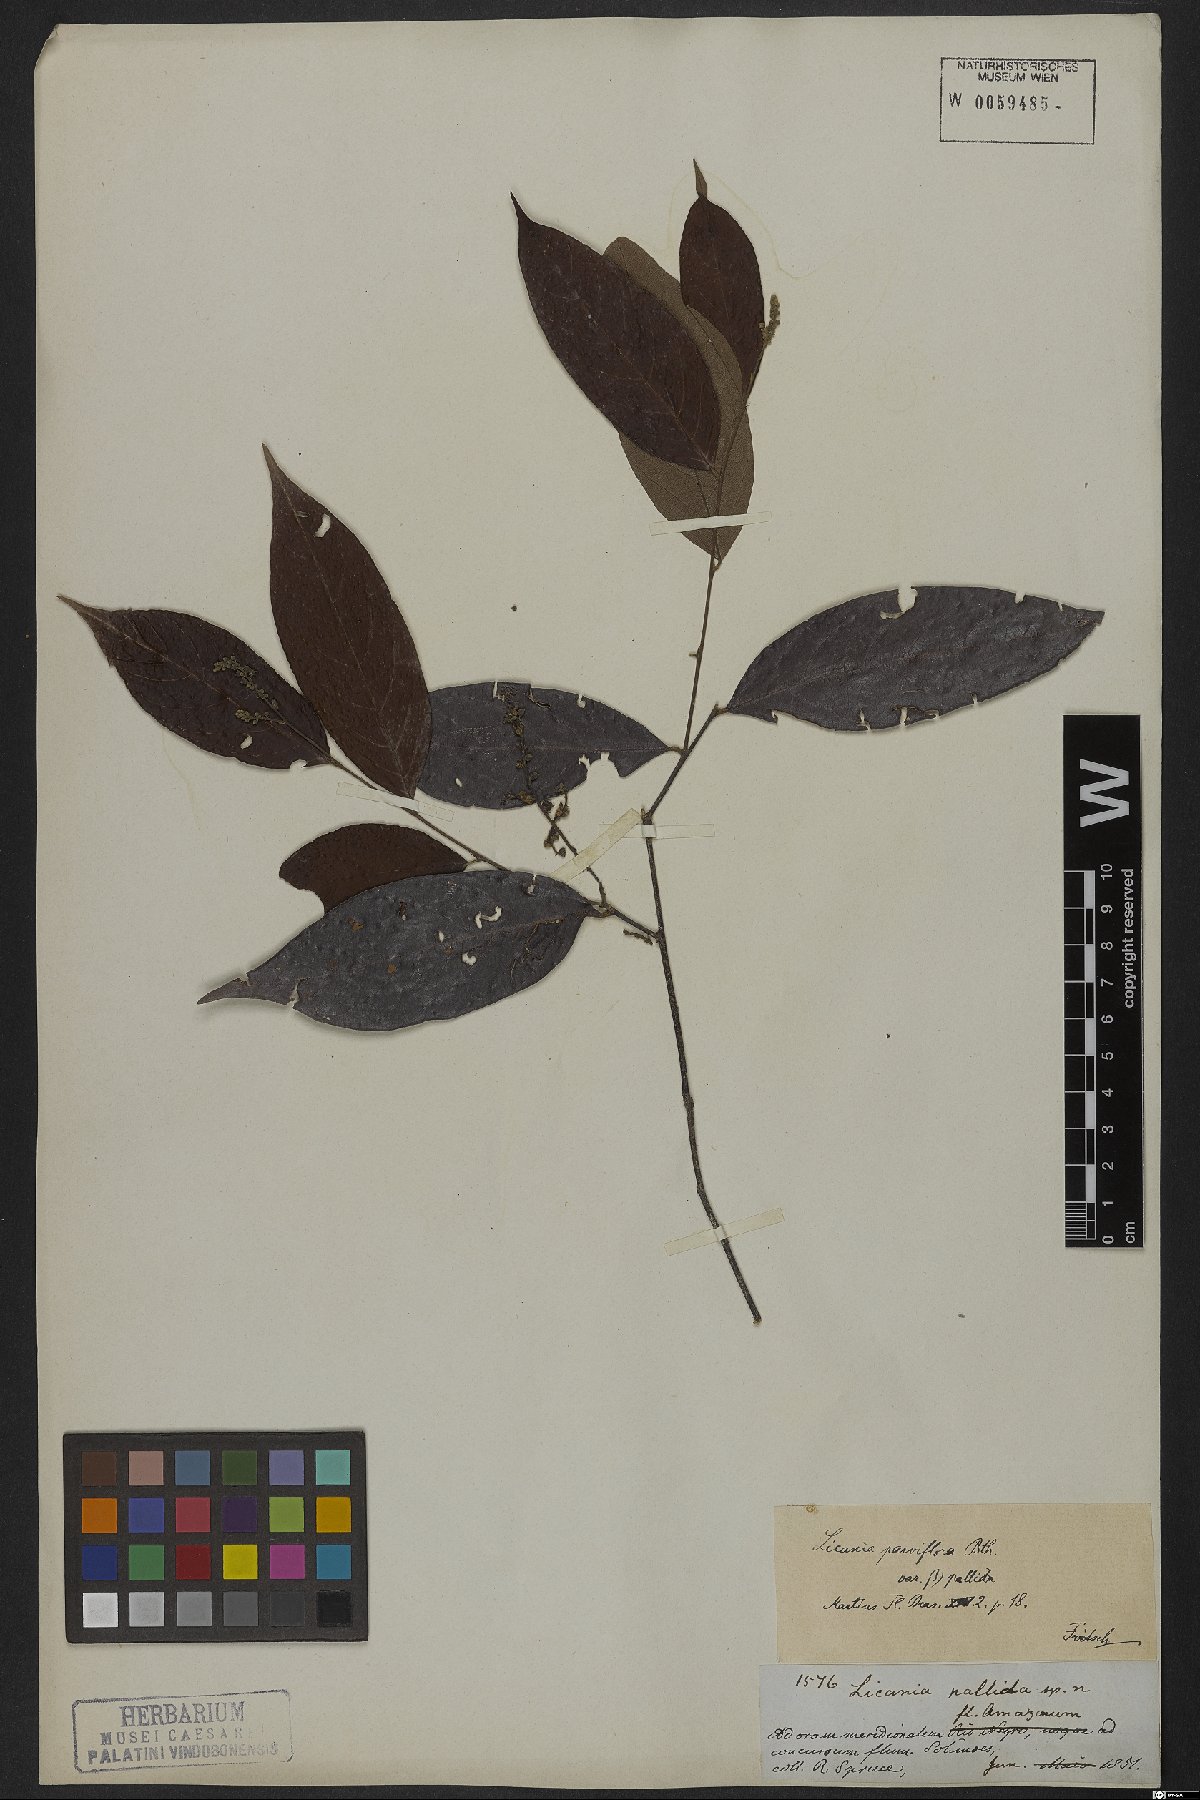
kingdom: Plantae
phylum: Tracheophyta
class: Magnoliopsida
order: Malpighiales
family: Chrysobalanaceae
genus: Leptobalanus
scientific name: Leptobalanus parviflorus
